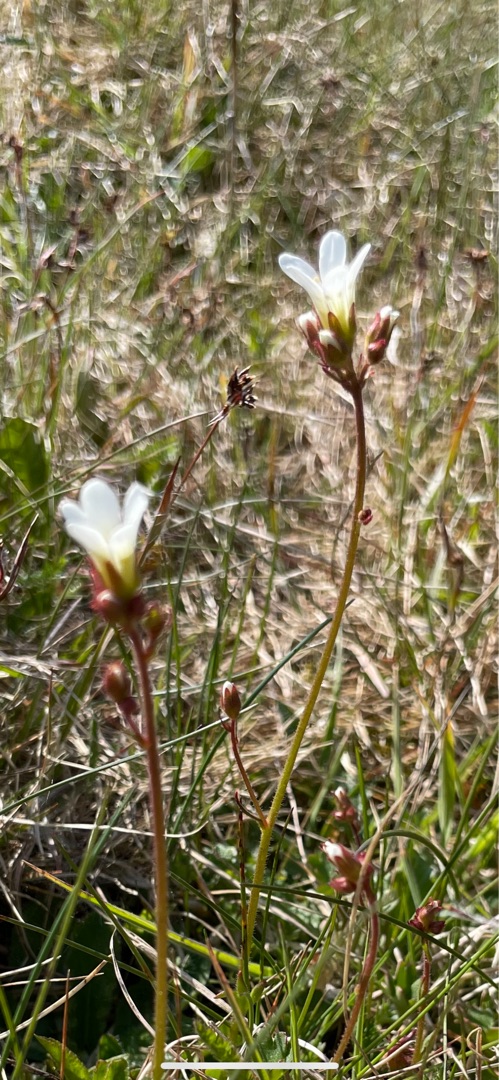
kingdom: Plantae
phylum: Tracheophyta
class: Magnoliopsida
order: Saxifragales
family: Saxifragaceae
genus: Saxifraga
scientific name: Saxifraga granulata
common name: Kornet stenbræk
